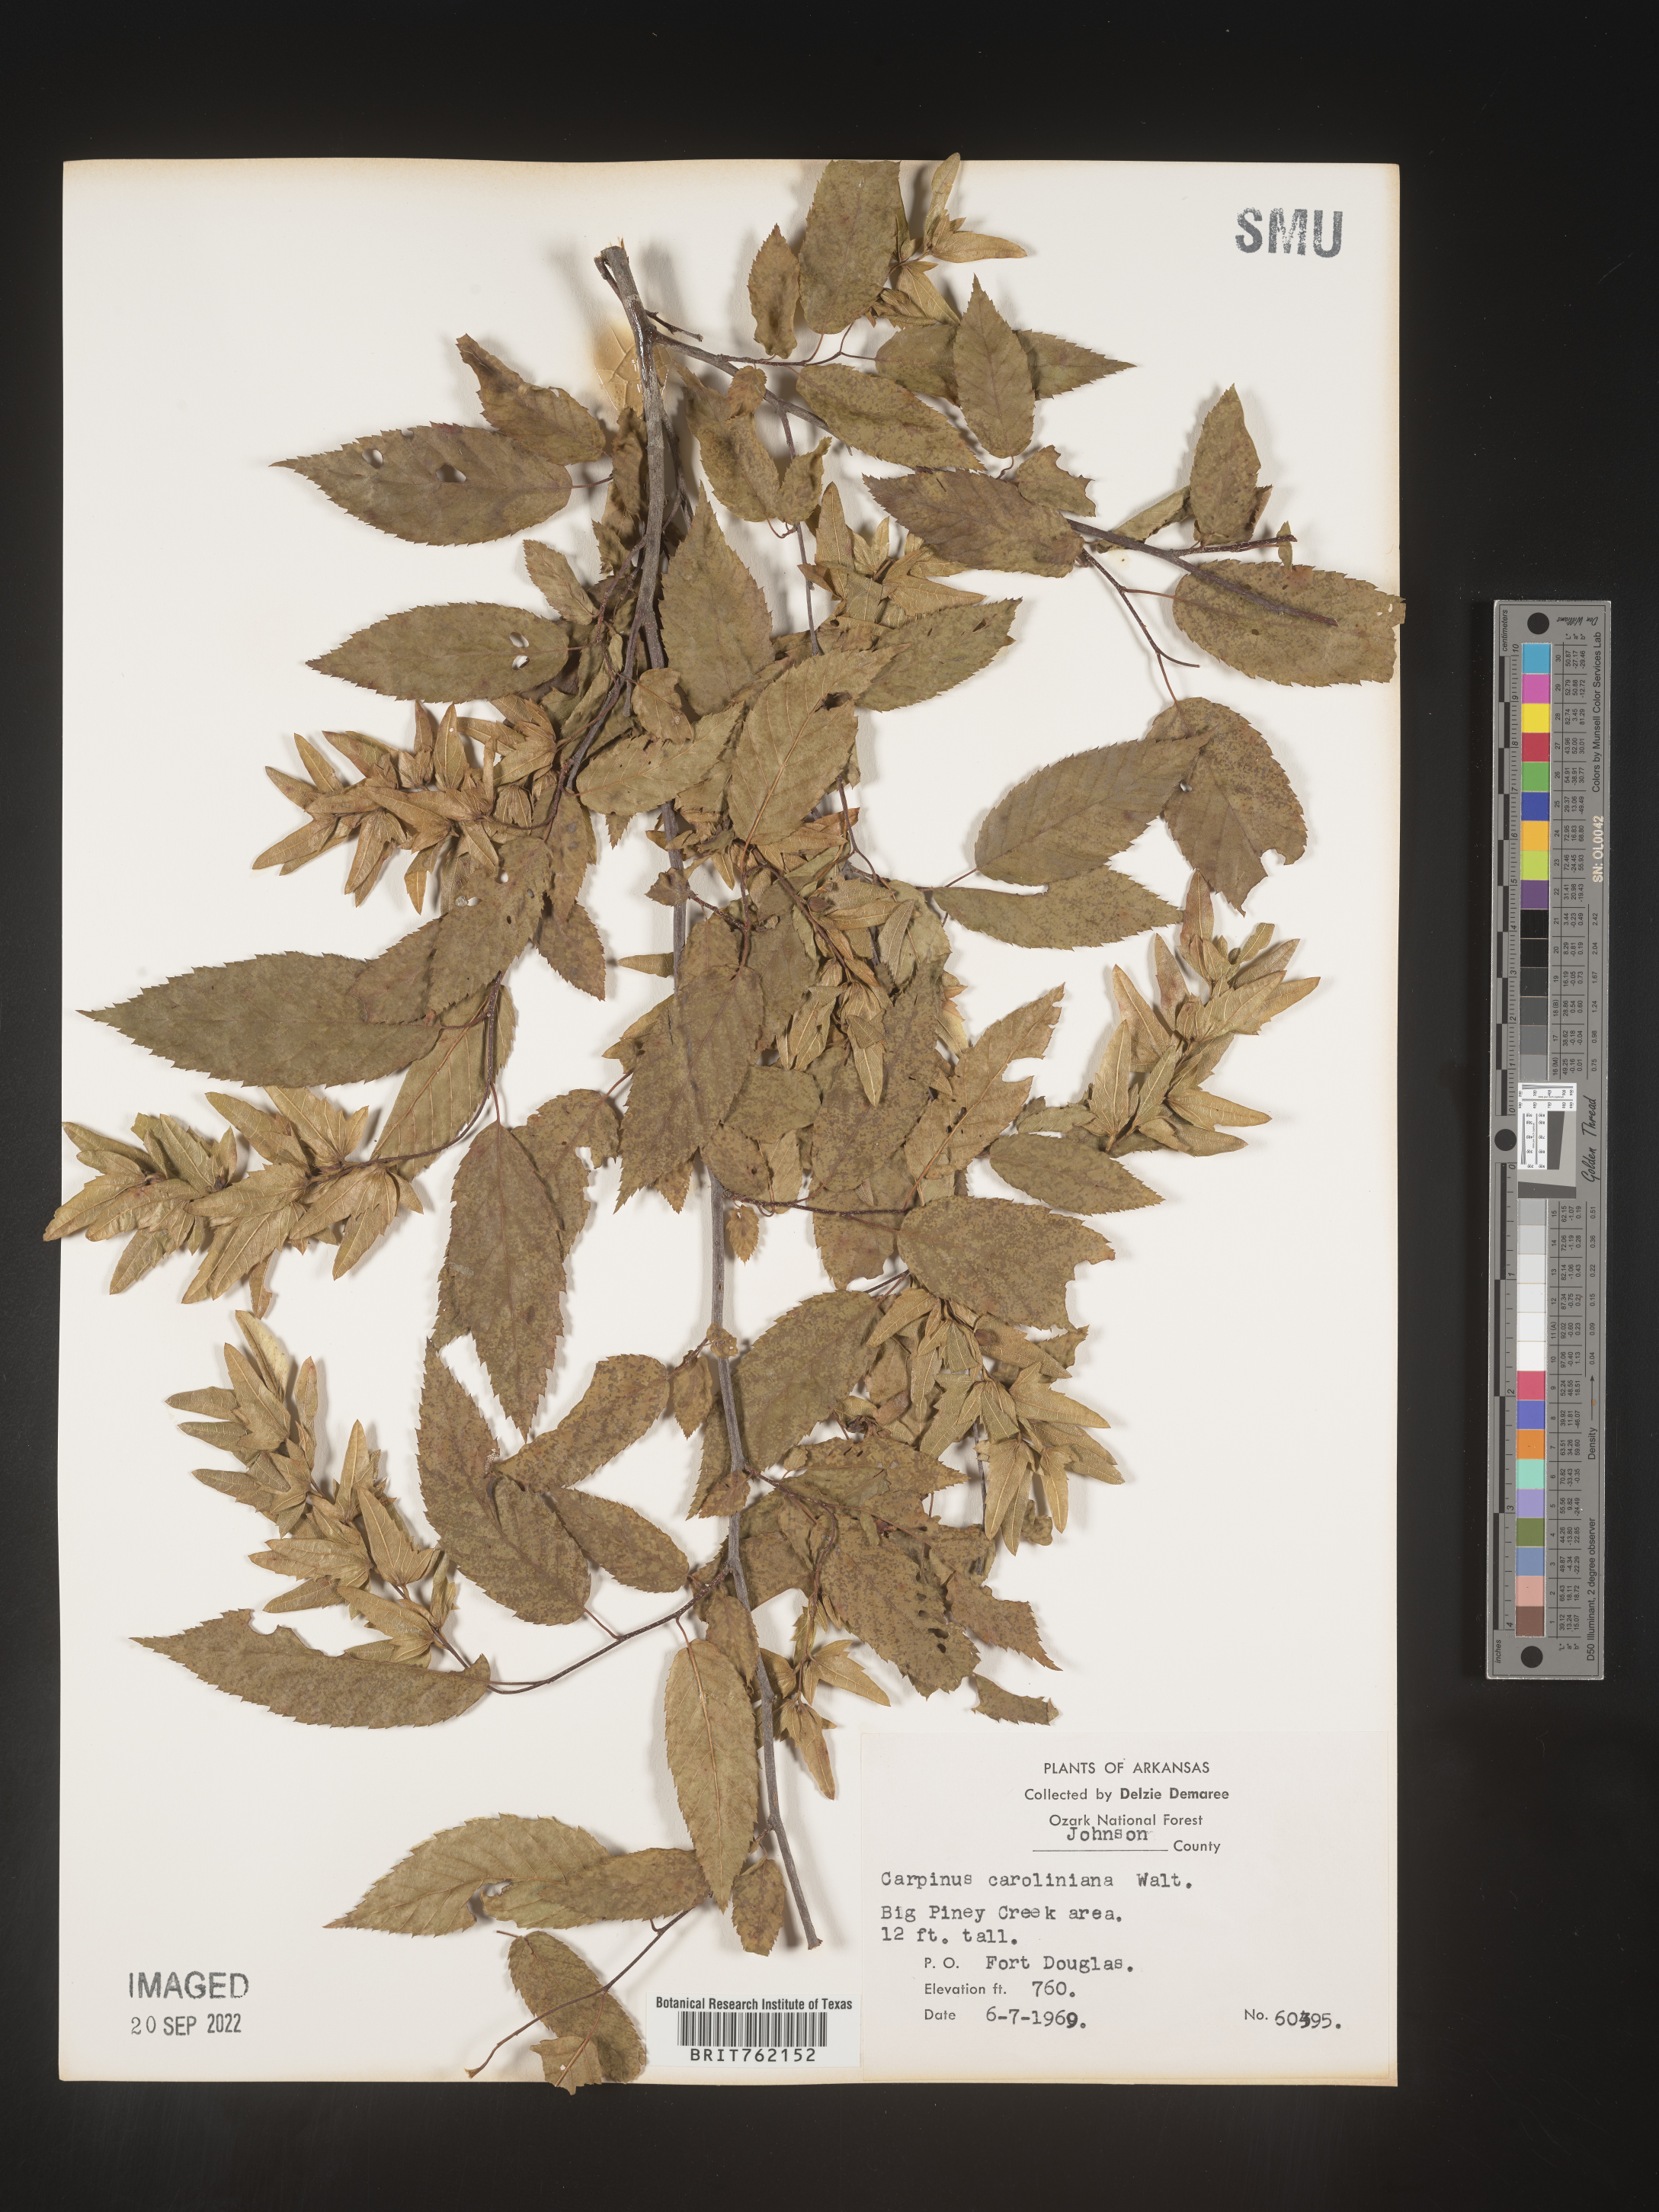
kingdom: Plantae
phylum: Tracheophyta
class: Magnoliopsida
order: Fagales
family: Betulaceae
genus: Carpinus
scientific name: Carpinus caroliniana
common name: American hornbeam
